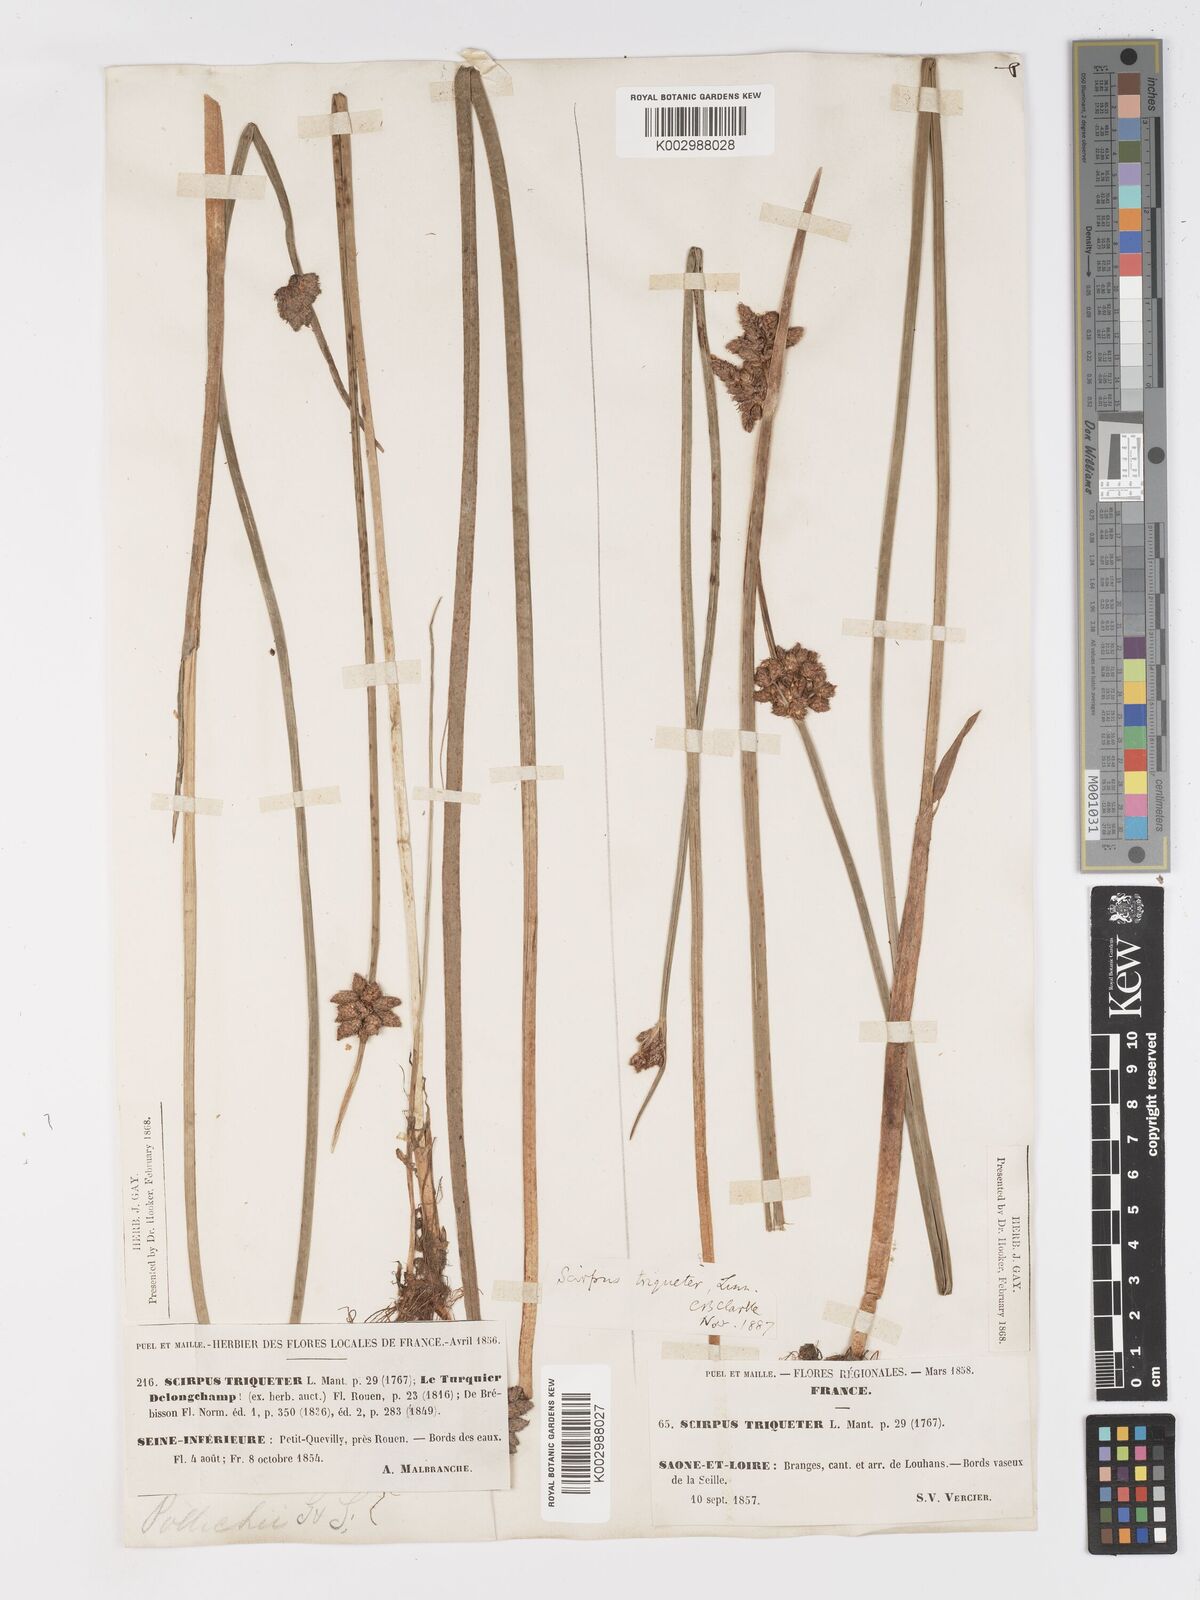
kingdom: Plantae
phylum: Tracheophyta
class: Liliopsida
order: Poales
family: Cyperaceae
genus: Schoenoplectus
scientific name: Schoenoplectus triqueter
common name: Triangular club-rush
